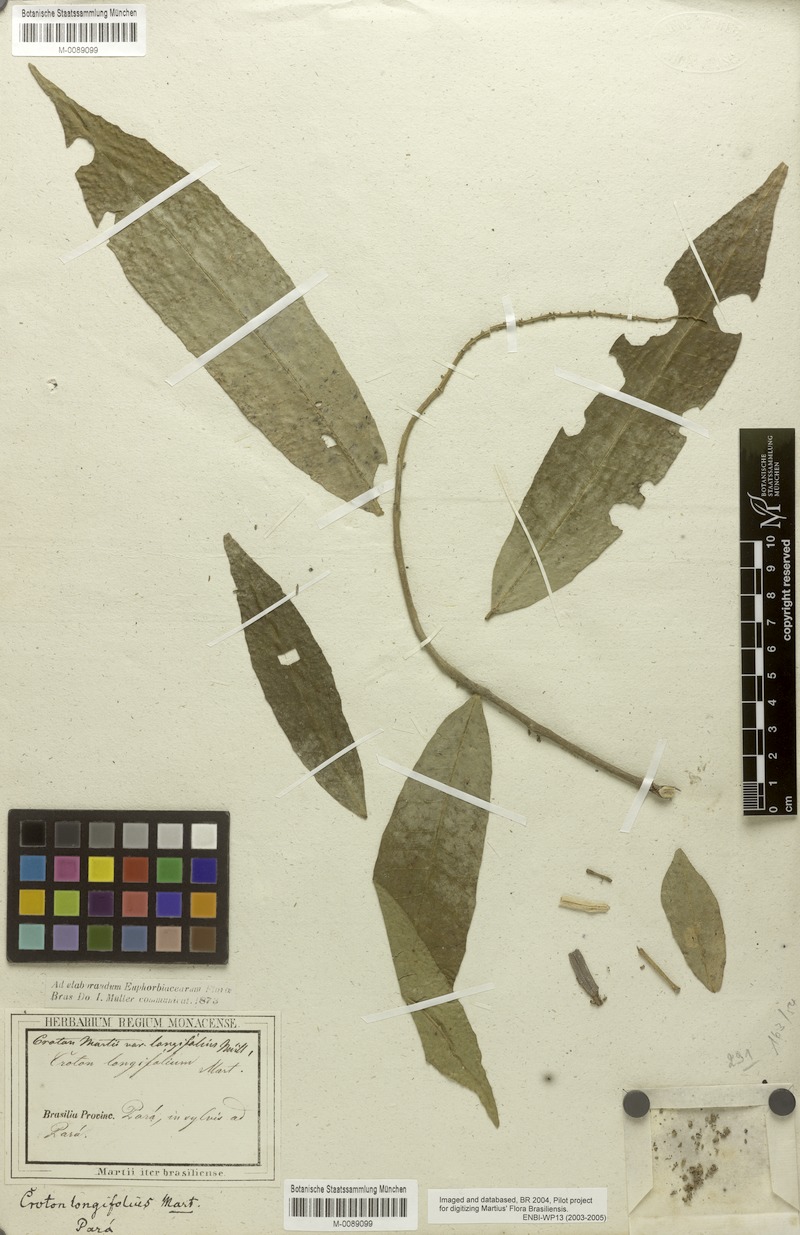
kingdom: Plantae
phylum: Tracheophyta
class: Magnoliopsida
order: Malpighiales
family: Euphorbiaceae
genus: Croton
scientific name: Croton cuneatus
